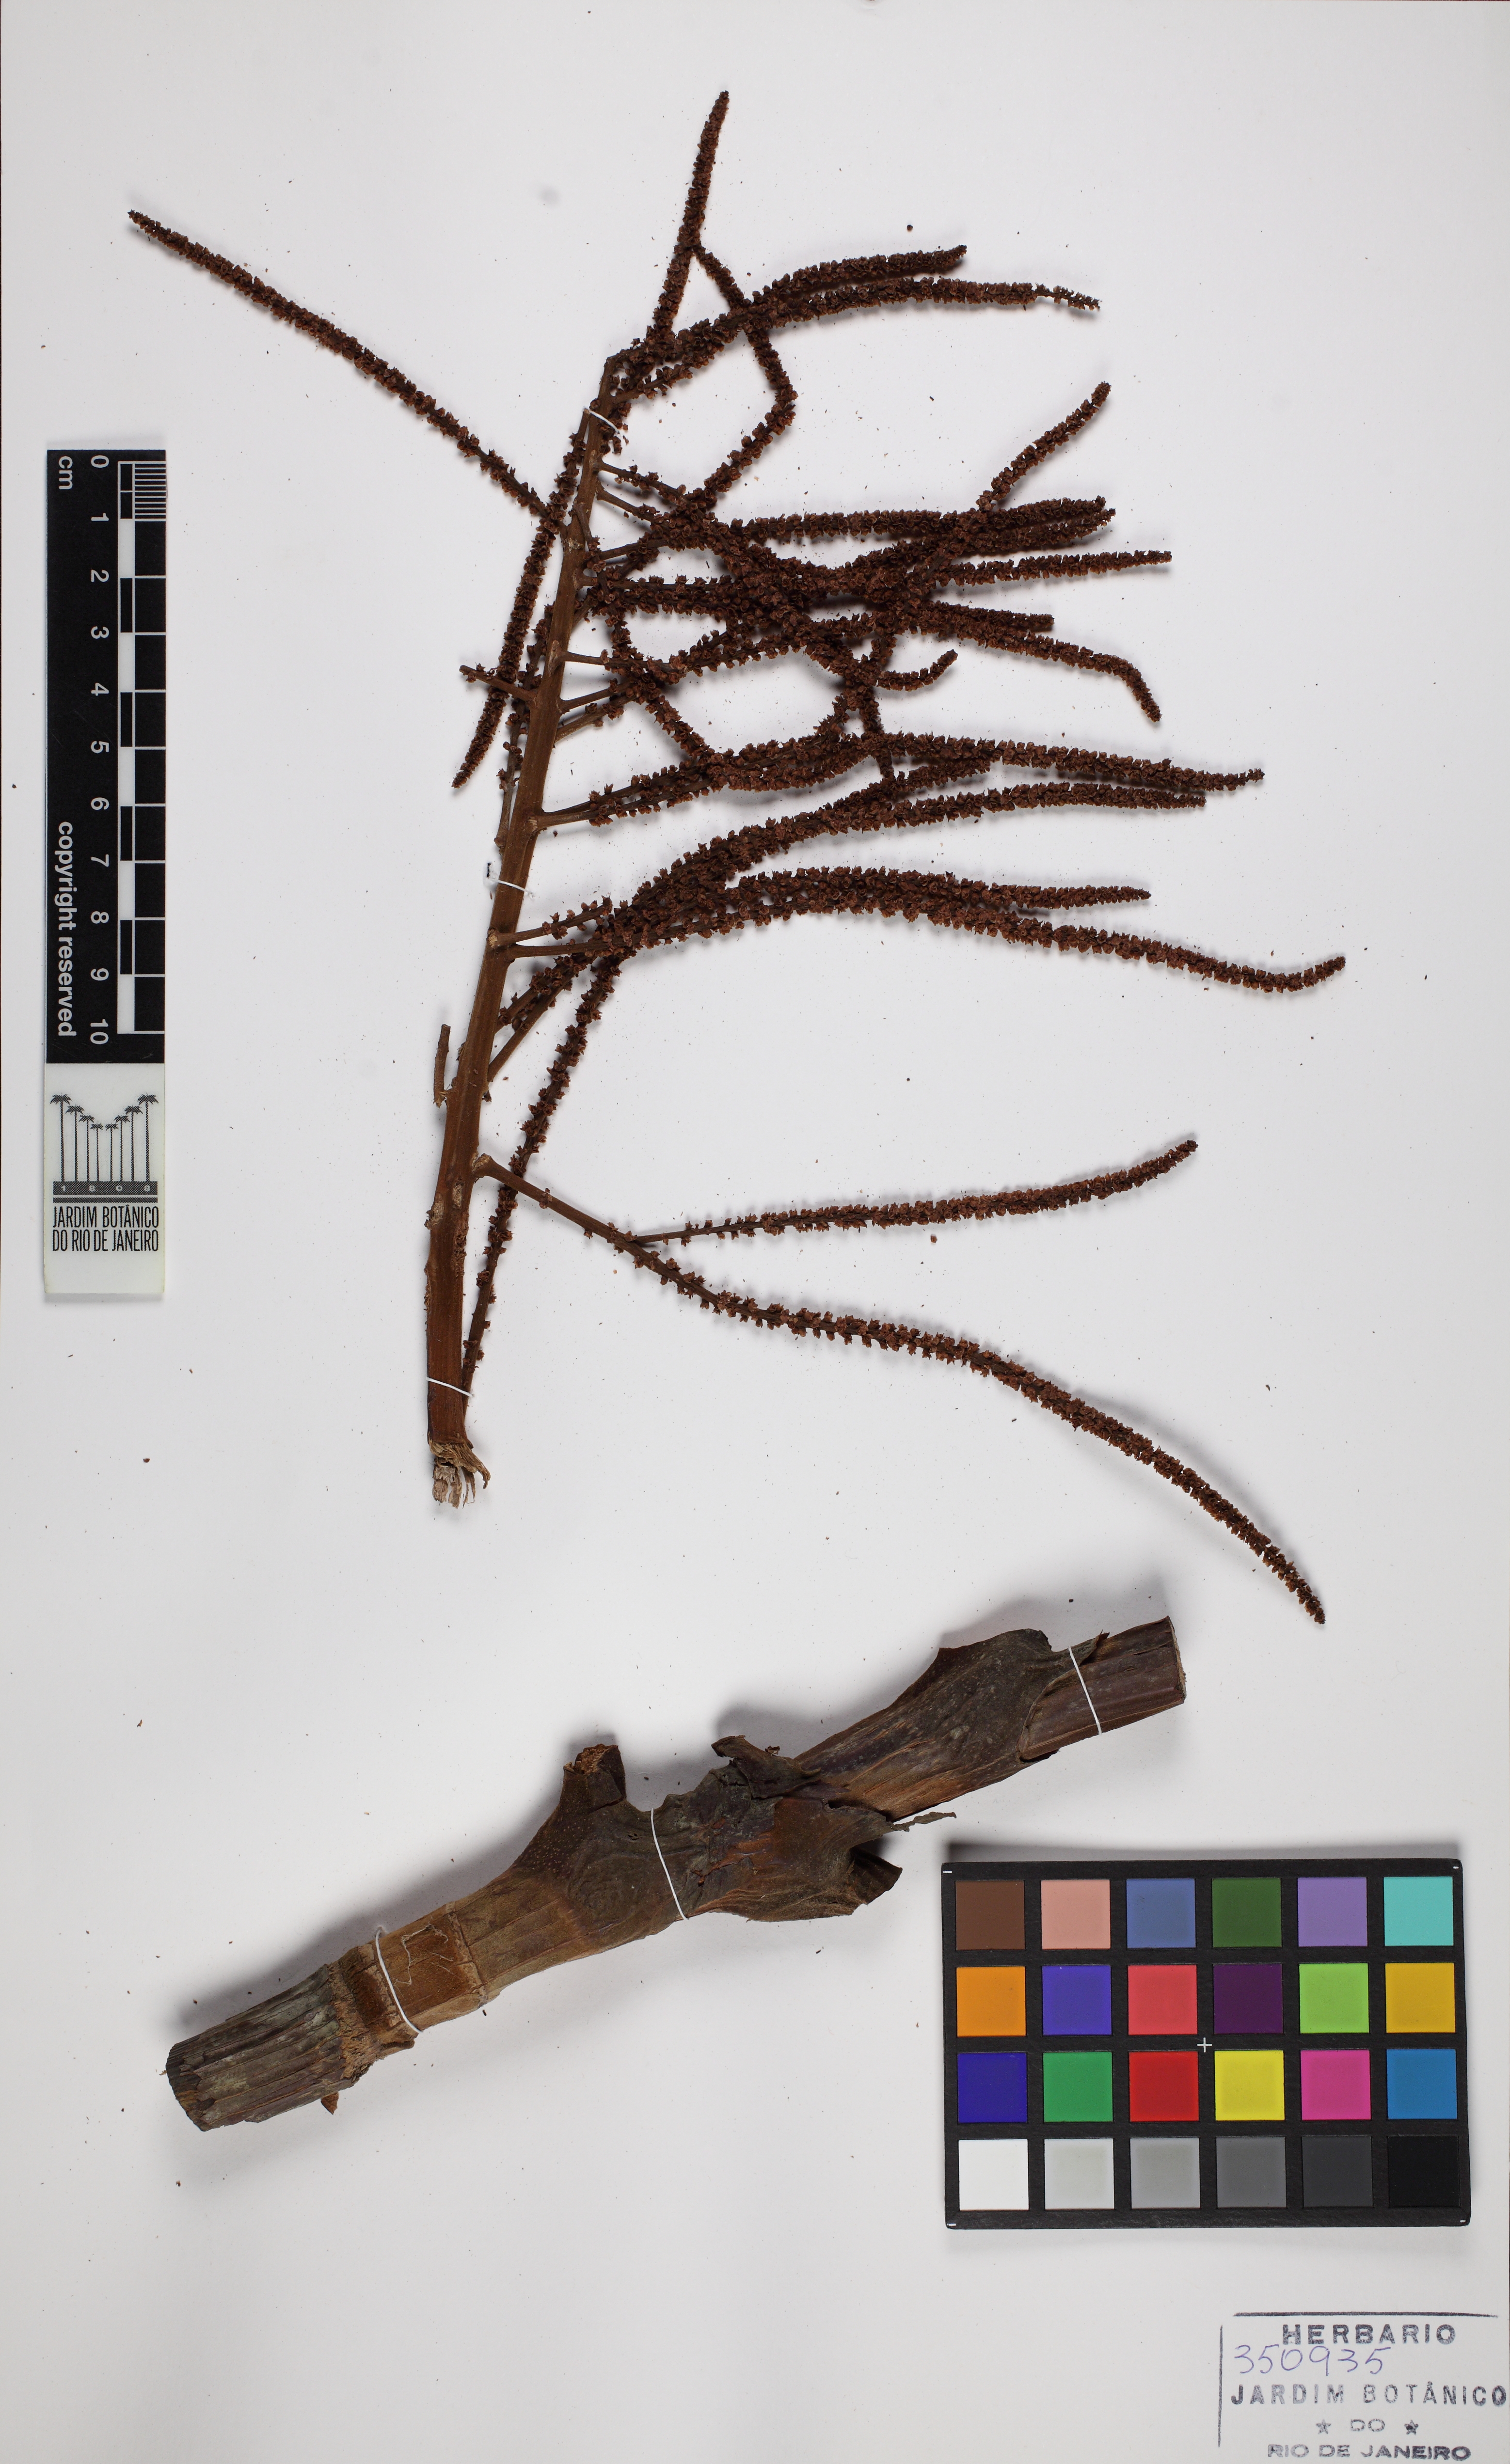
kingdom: Plantae
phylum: Tracheophyta
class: Magnoliopsida
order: Caryophyllales
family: Polygonaceae
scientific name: Polygonaceae
